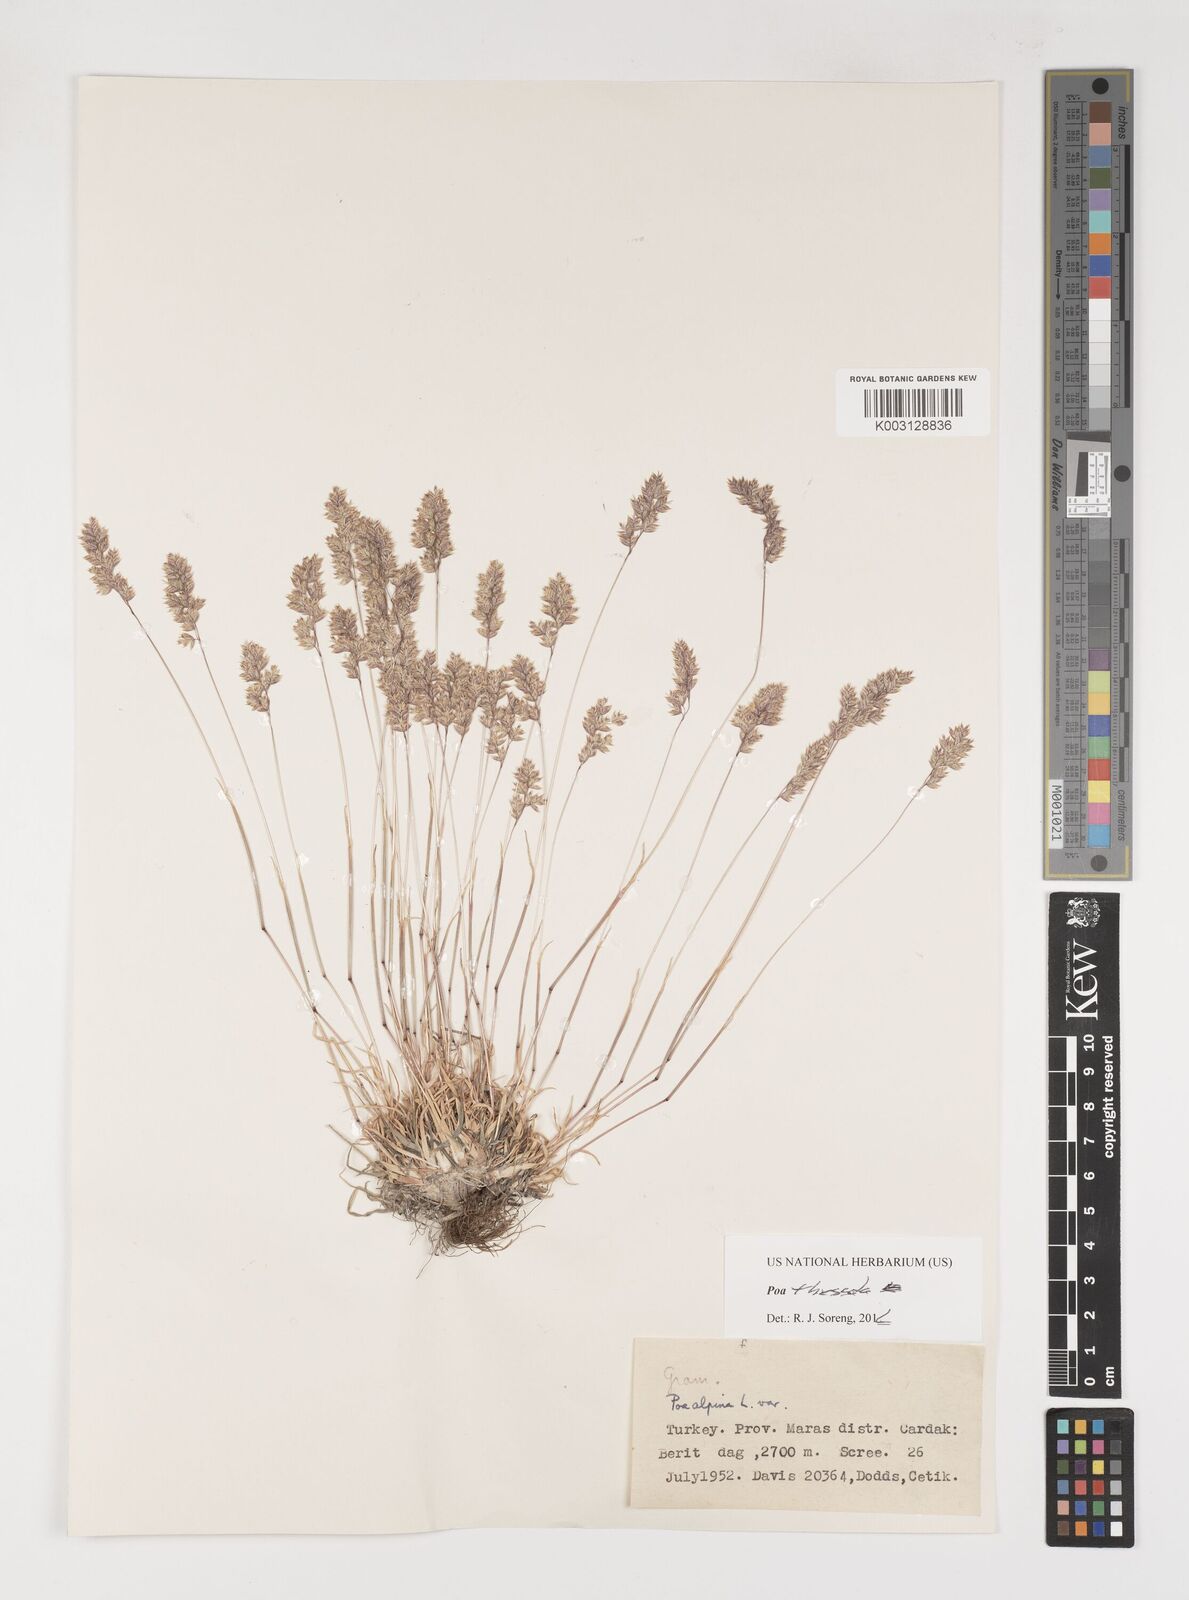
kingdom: Plantae
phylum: Tracheophyta
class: Liliopsida
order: Poales
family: Poaceae
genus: Poa
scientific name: Poa thessala
